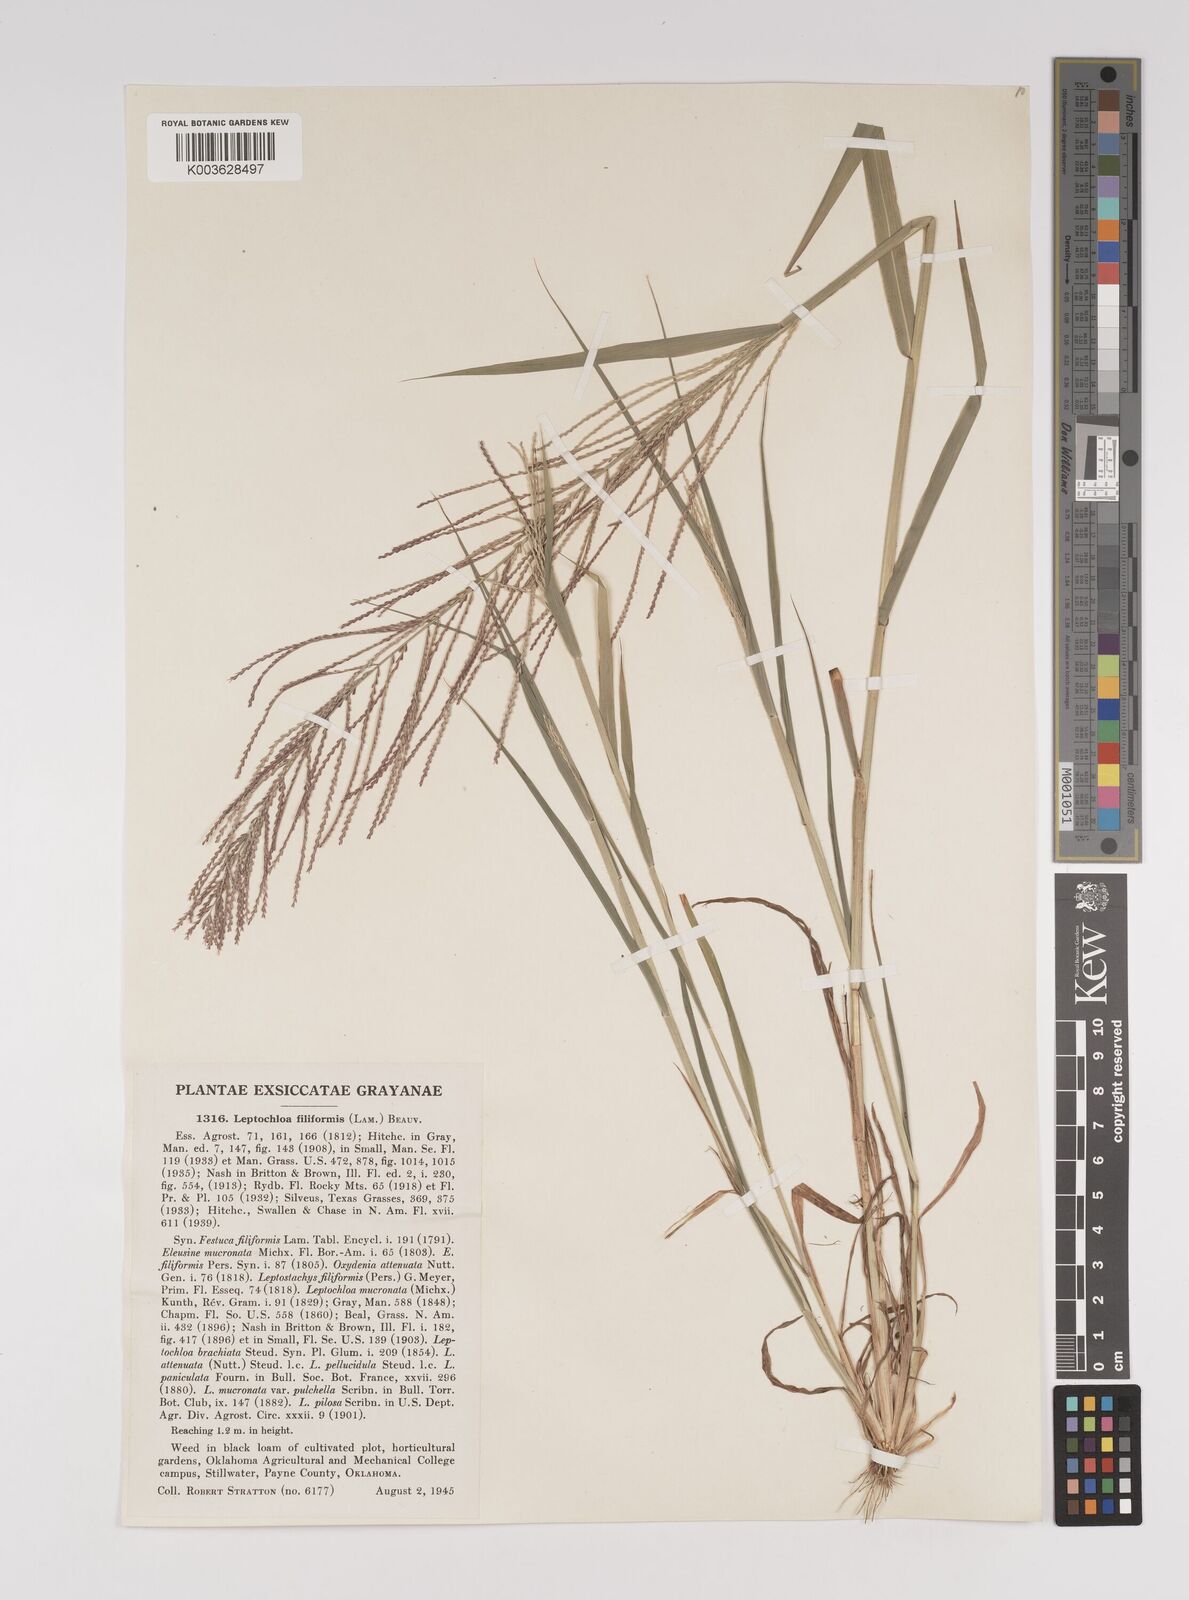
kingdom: Plantae
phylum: Tracheophyta
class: Liliopsida
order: Poales
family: Poaceae
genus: Leptochloa
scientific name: Leptochloa panicea
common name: Mucronate sprangletop
